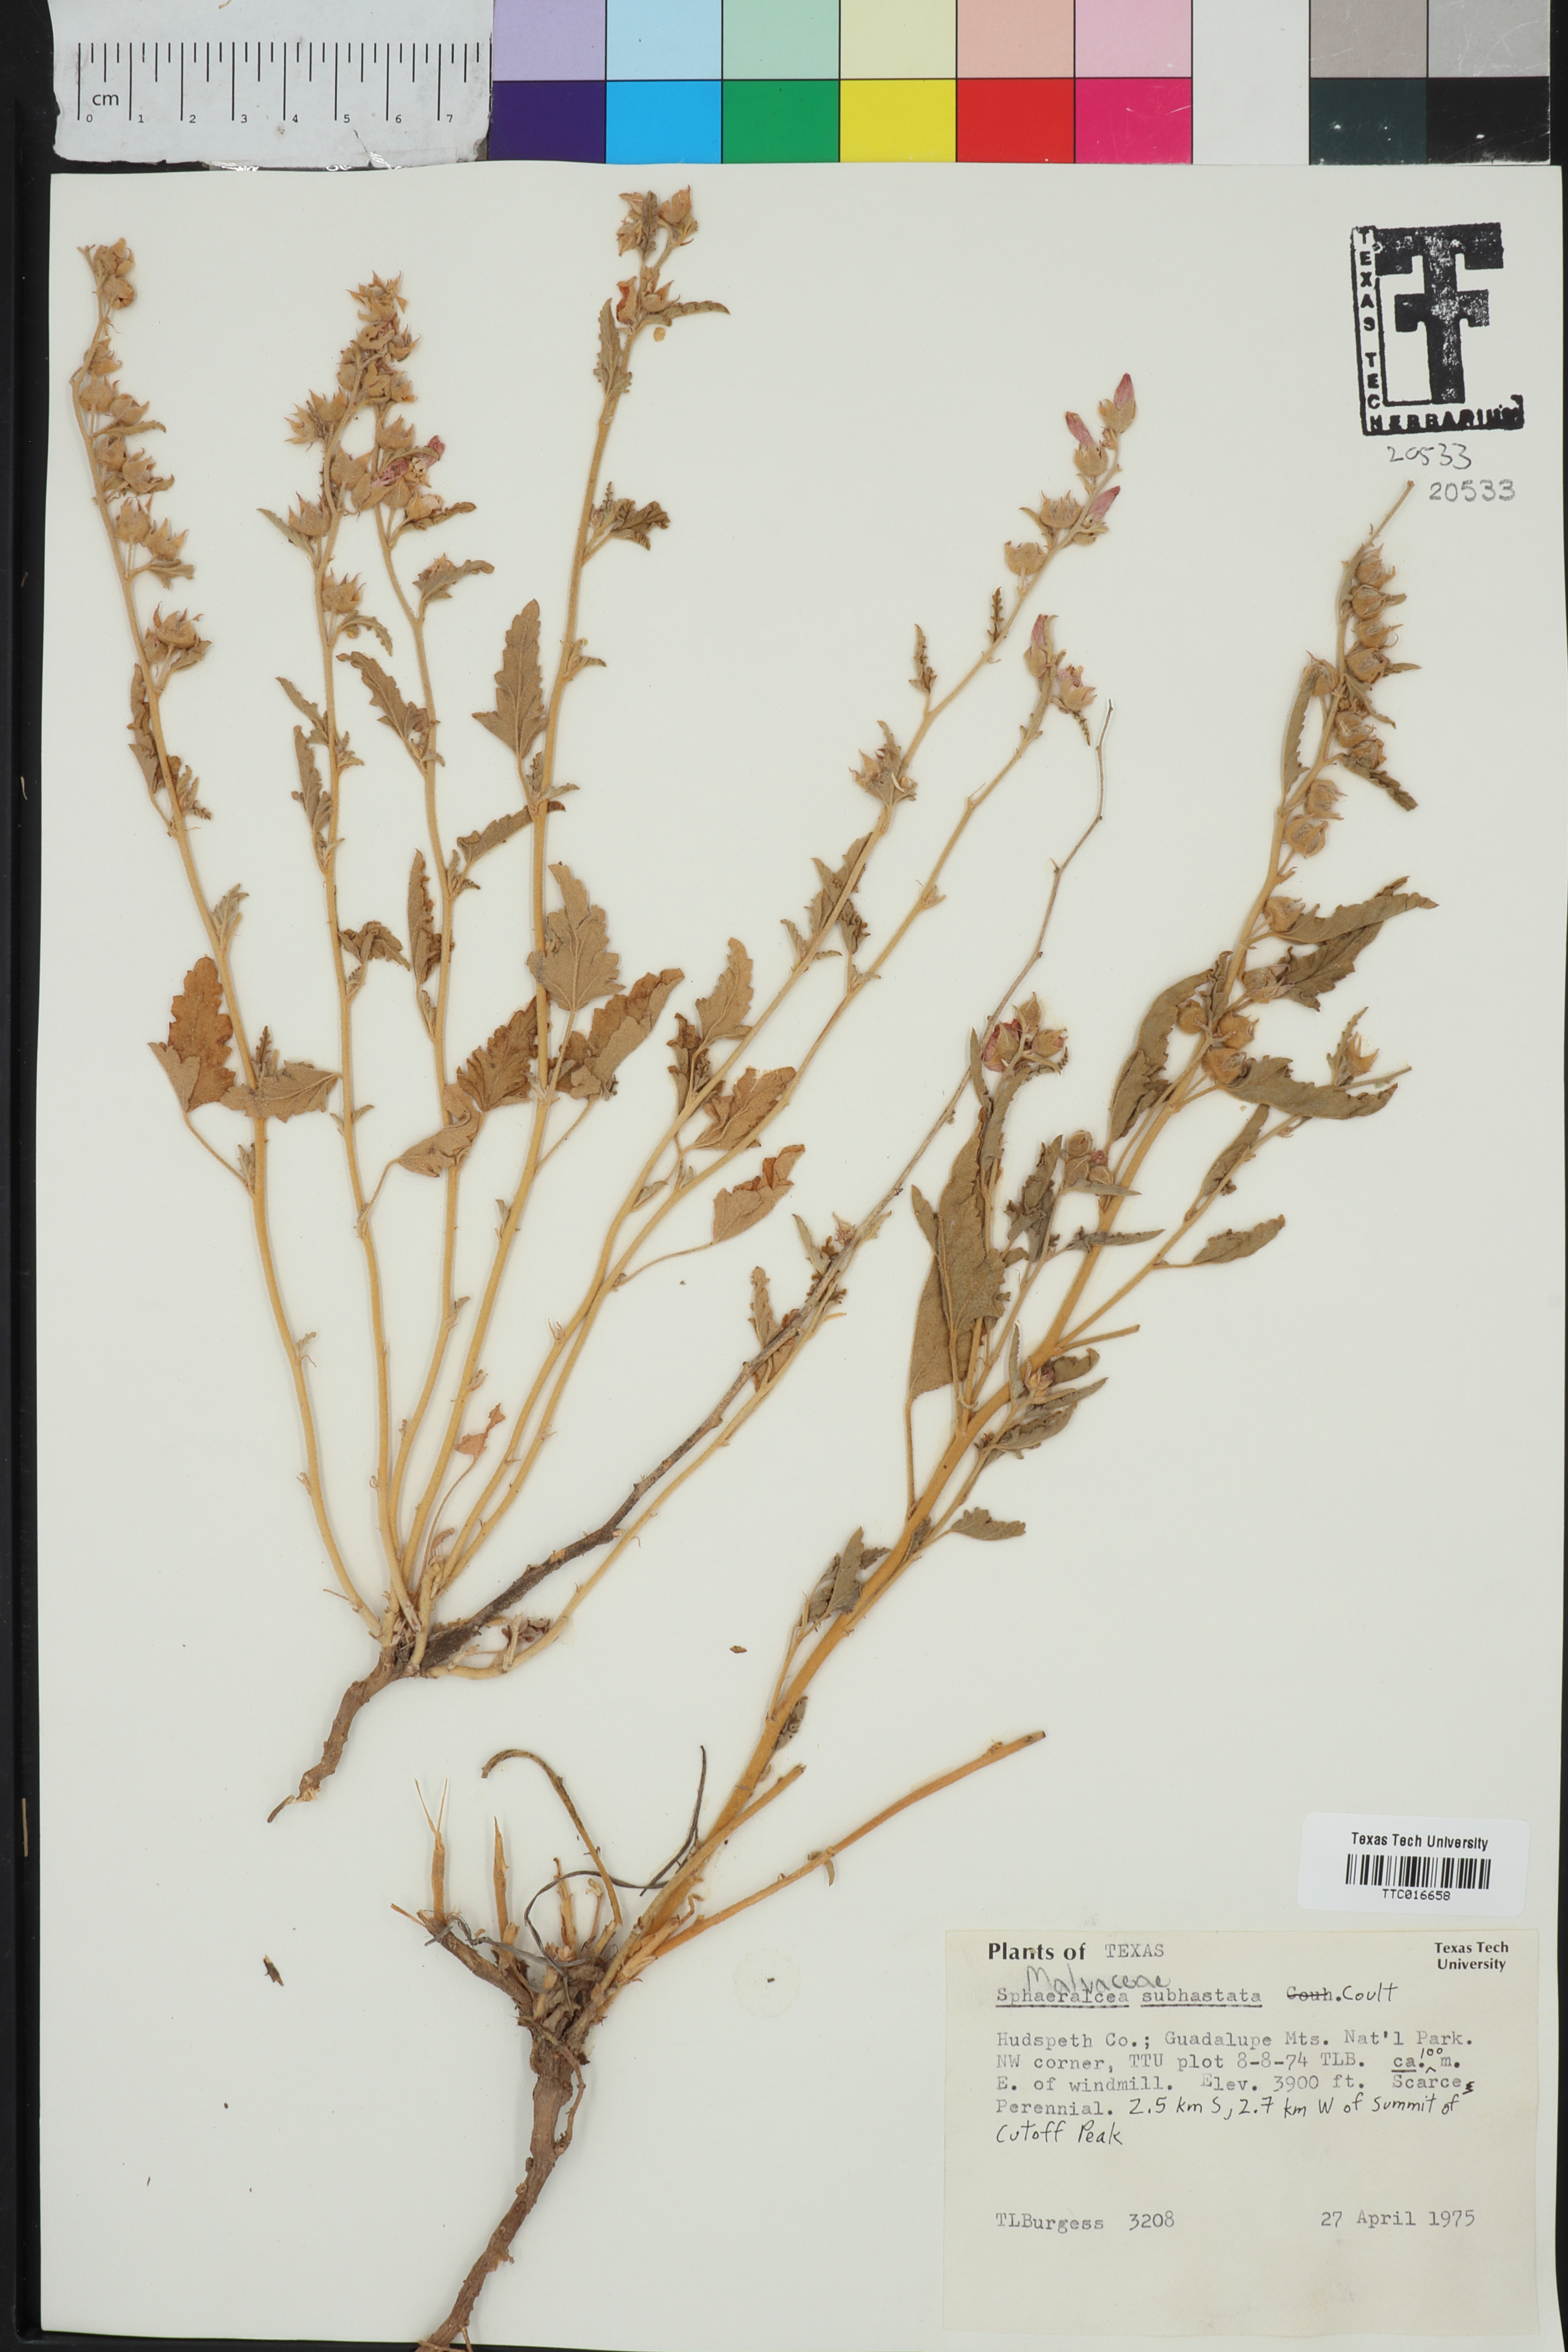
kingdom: Plantae
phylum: Tracheophyta
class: Magnoliopsida
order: Malvales
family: Malvaceae
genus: Sphaeralcea
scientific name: Sphaeralcea hastulata
